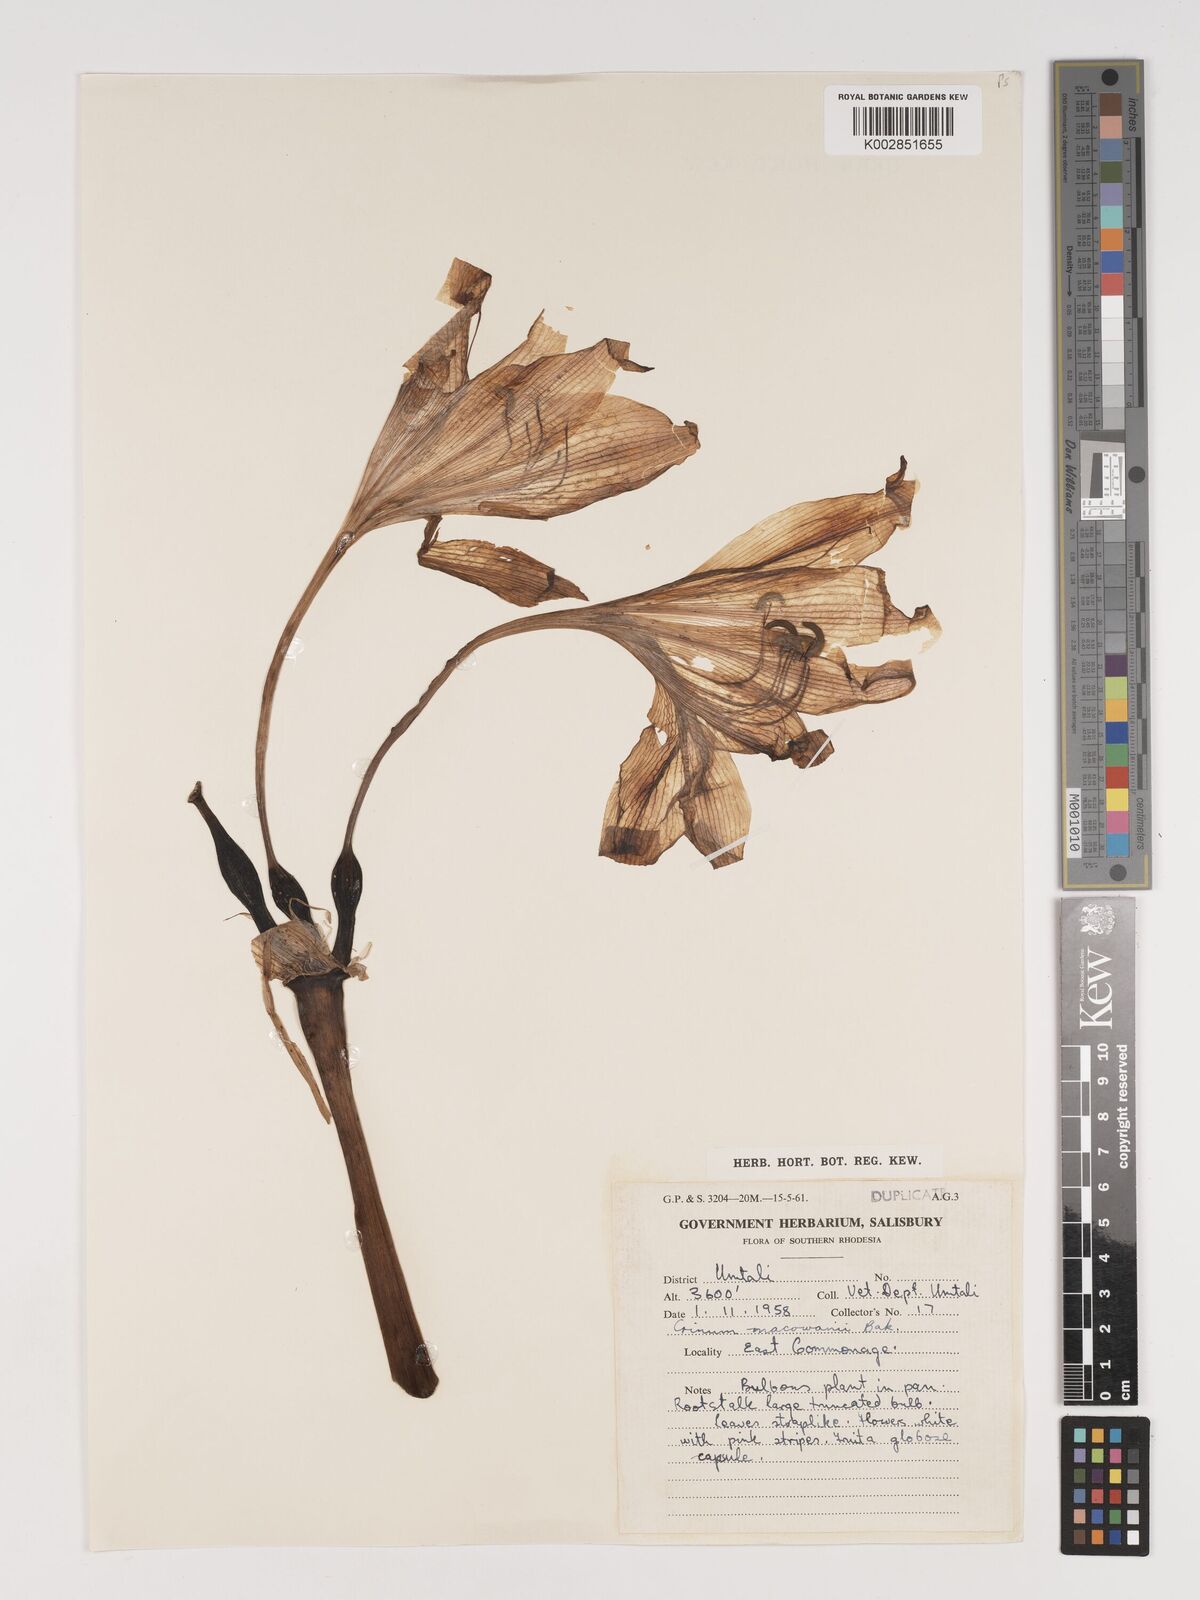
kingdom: Plantae
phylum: Tracheophyta
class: Liliopsida
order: Asparagales
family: Amaryllidaceae
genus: Crinum
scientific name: Crinum graminicola
